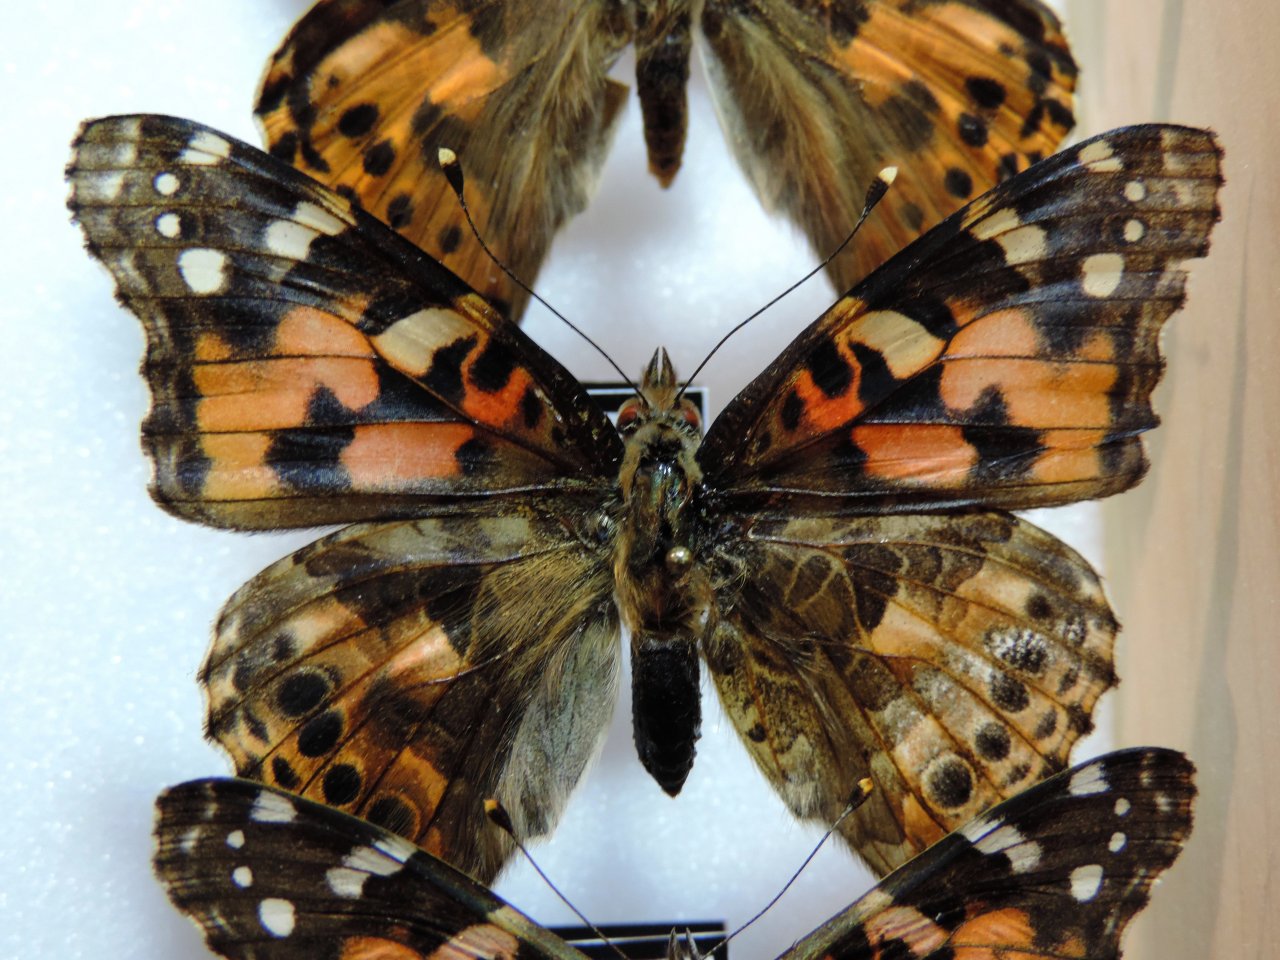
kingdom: Animalia
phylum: Arthropoda
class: Insecta
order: Lepidoptera
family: Nymphalidae
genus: Vanessa
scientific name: Vanessa cardui
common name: Painted Lady
